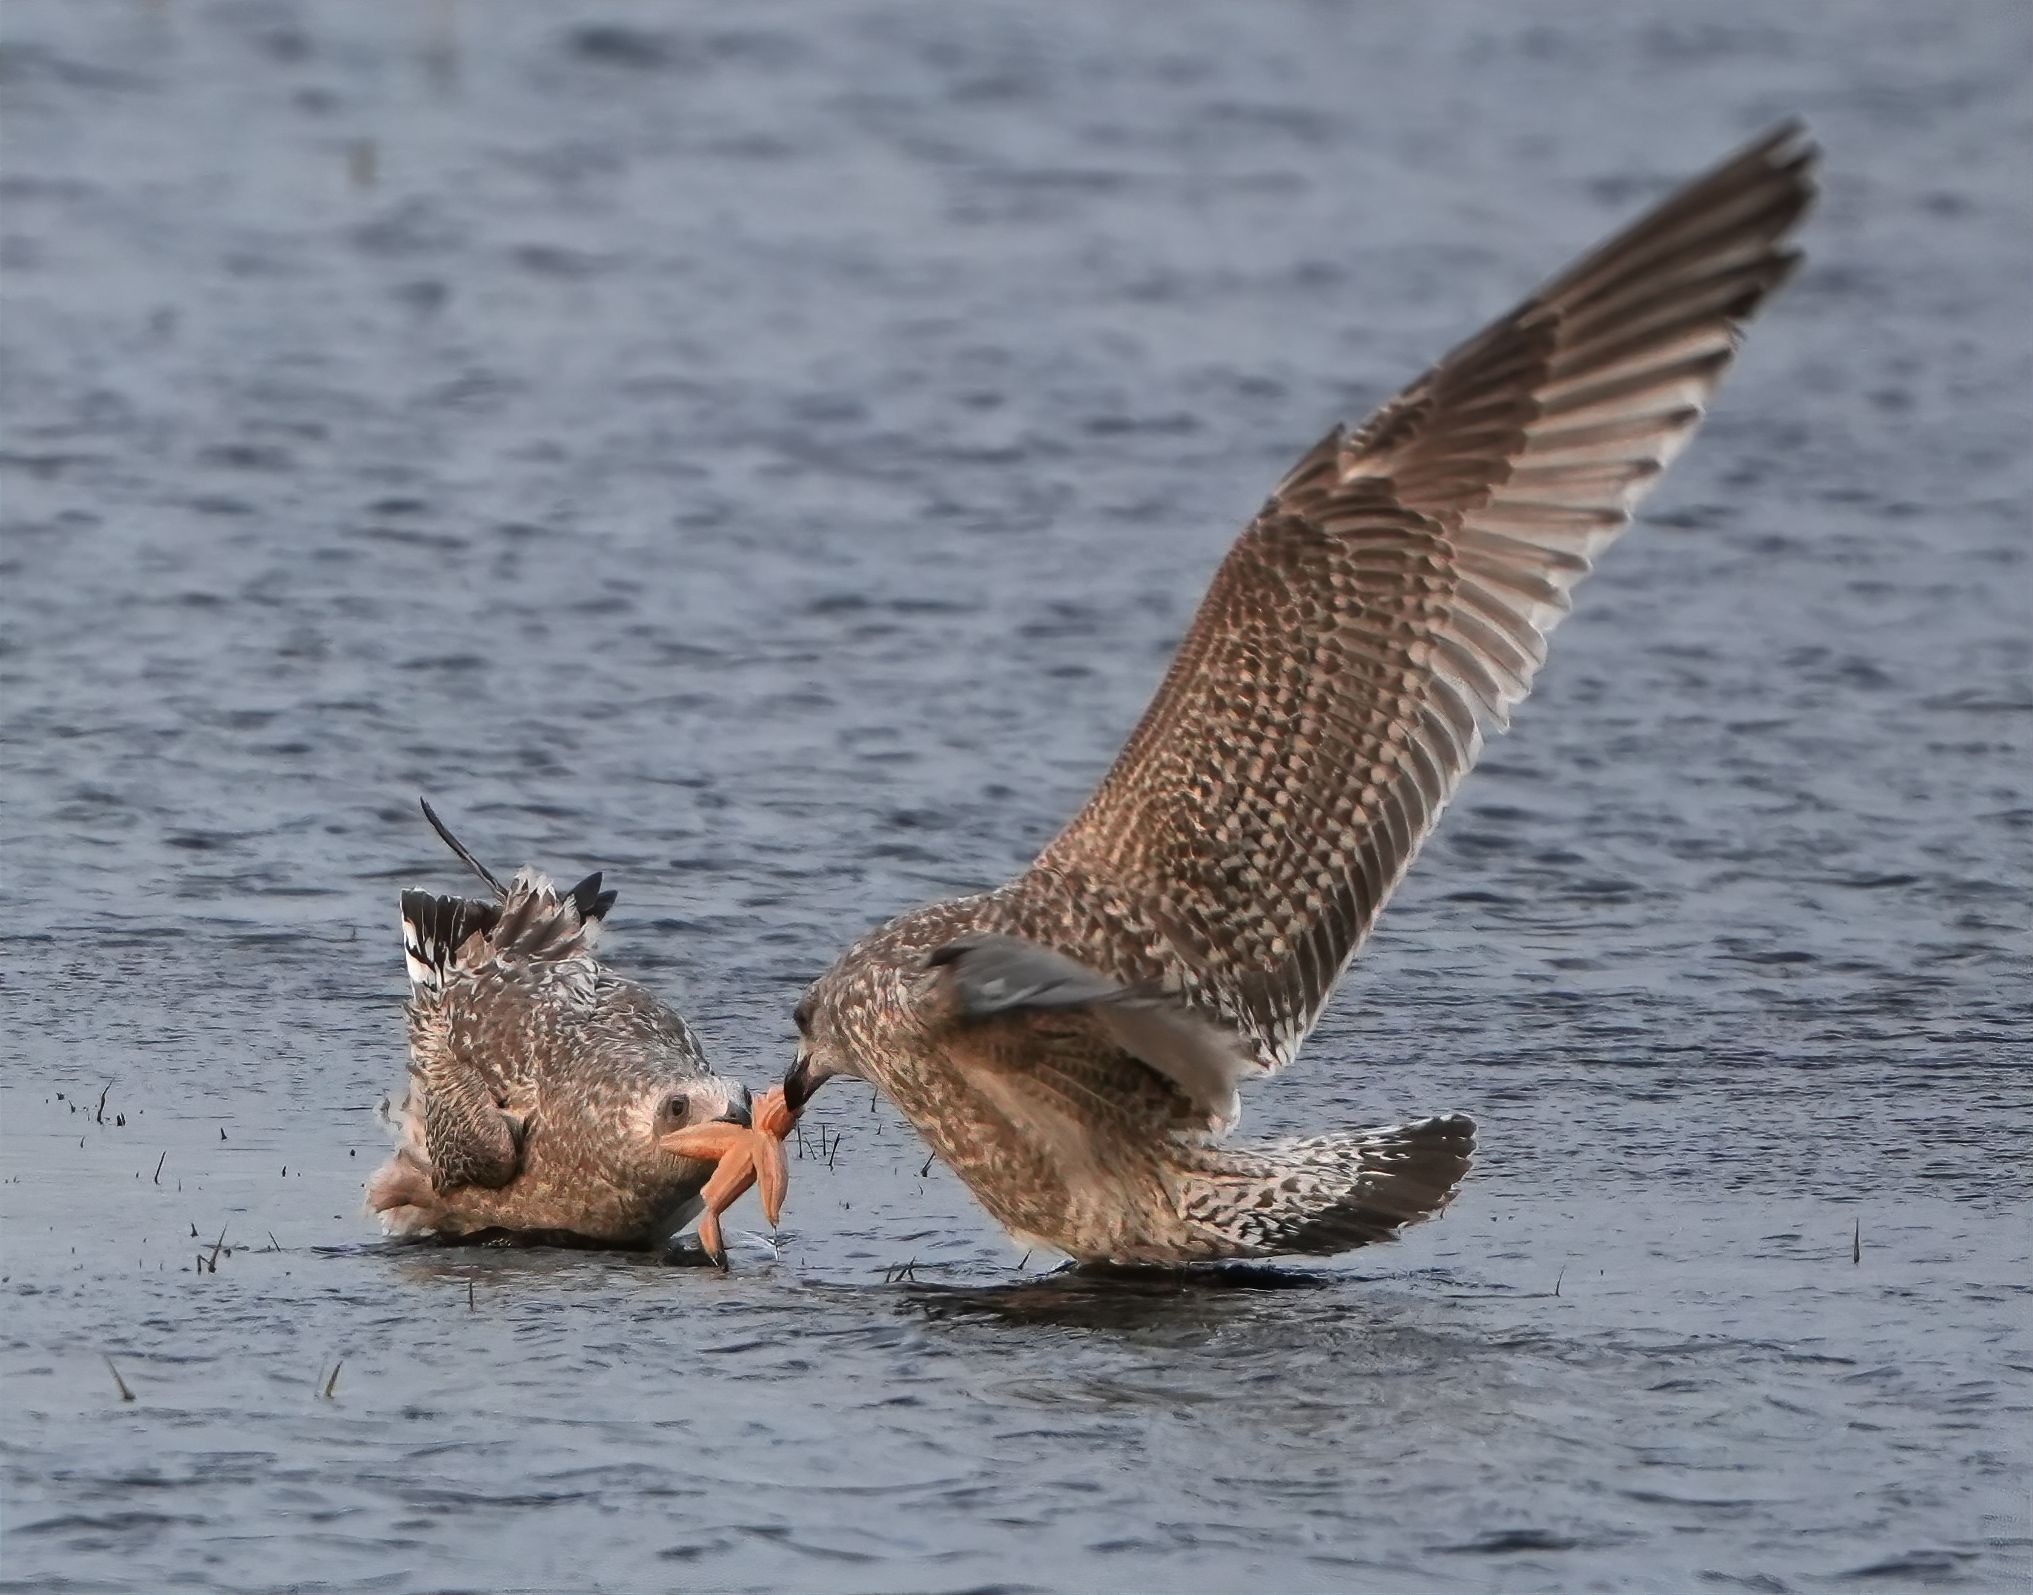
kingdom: Animalia
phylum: Chordata
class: Aves
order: Charadriiformes
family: Laridae
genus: Larus
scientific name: Larus argentatus
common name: Sølvmåge
